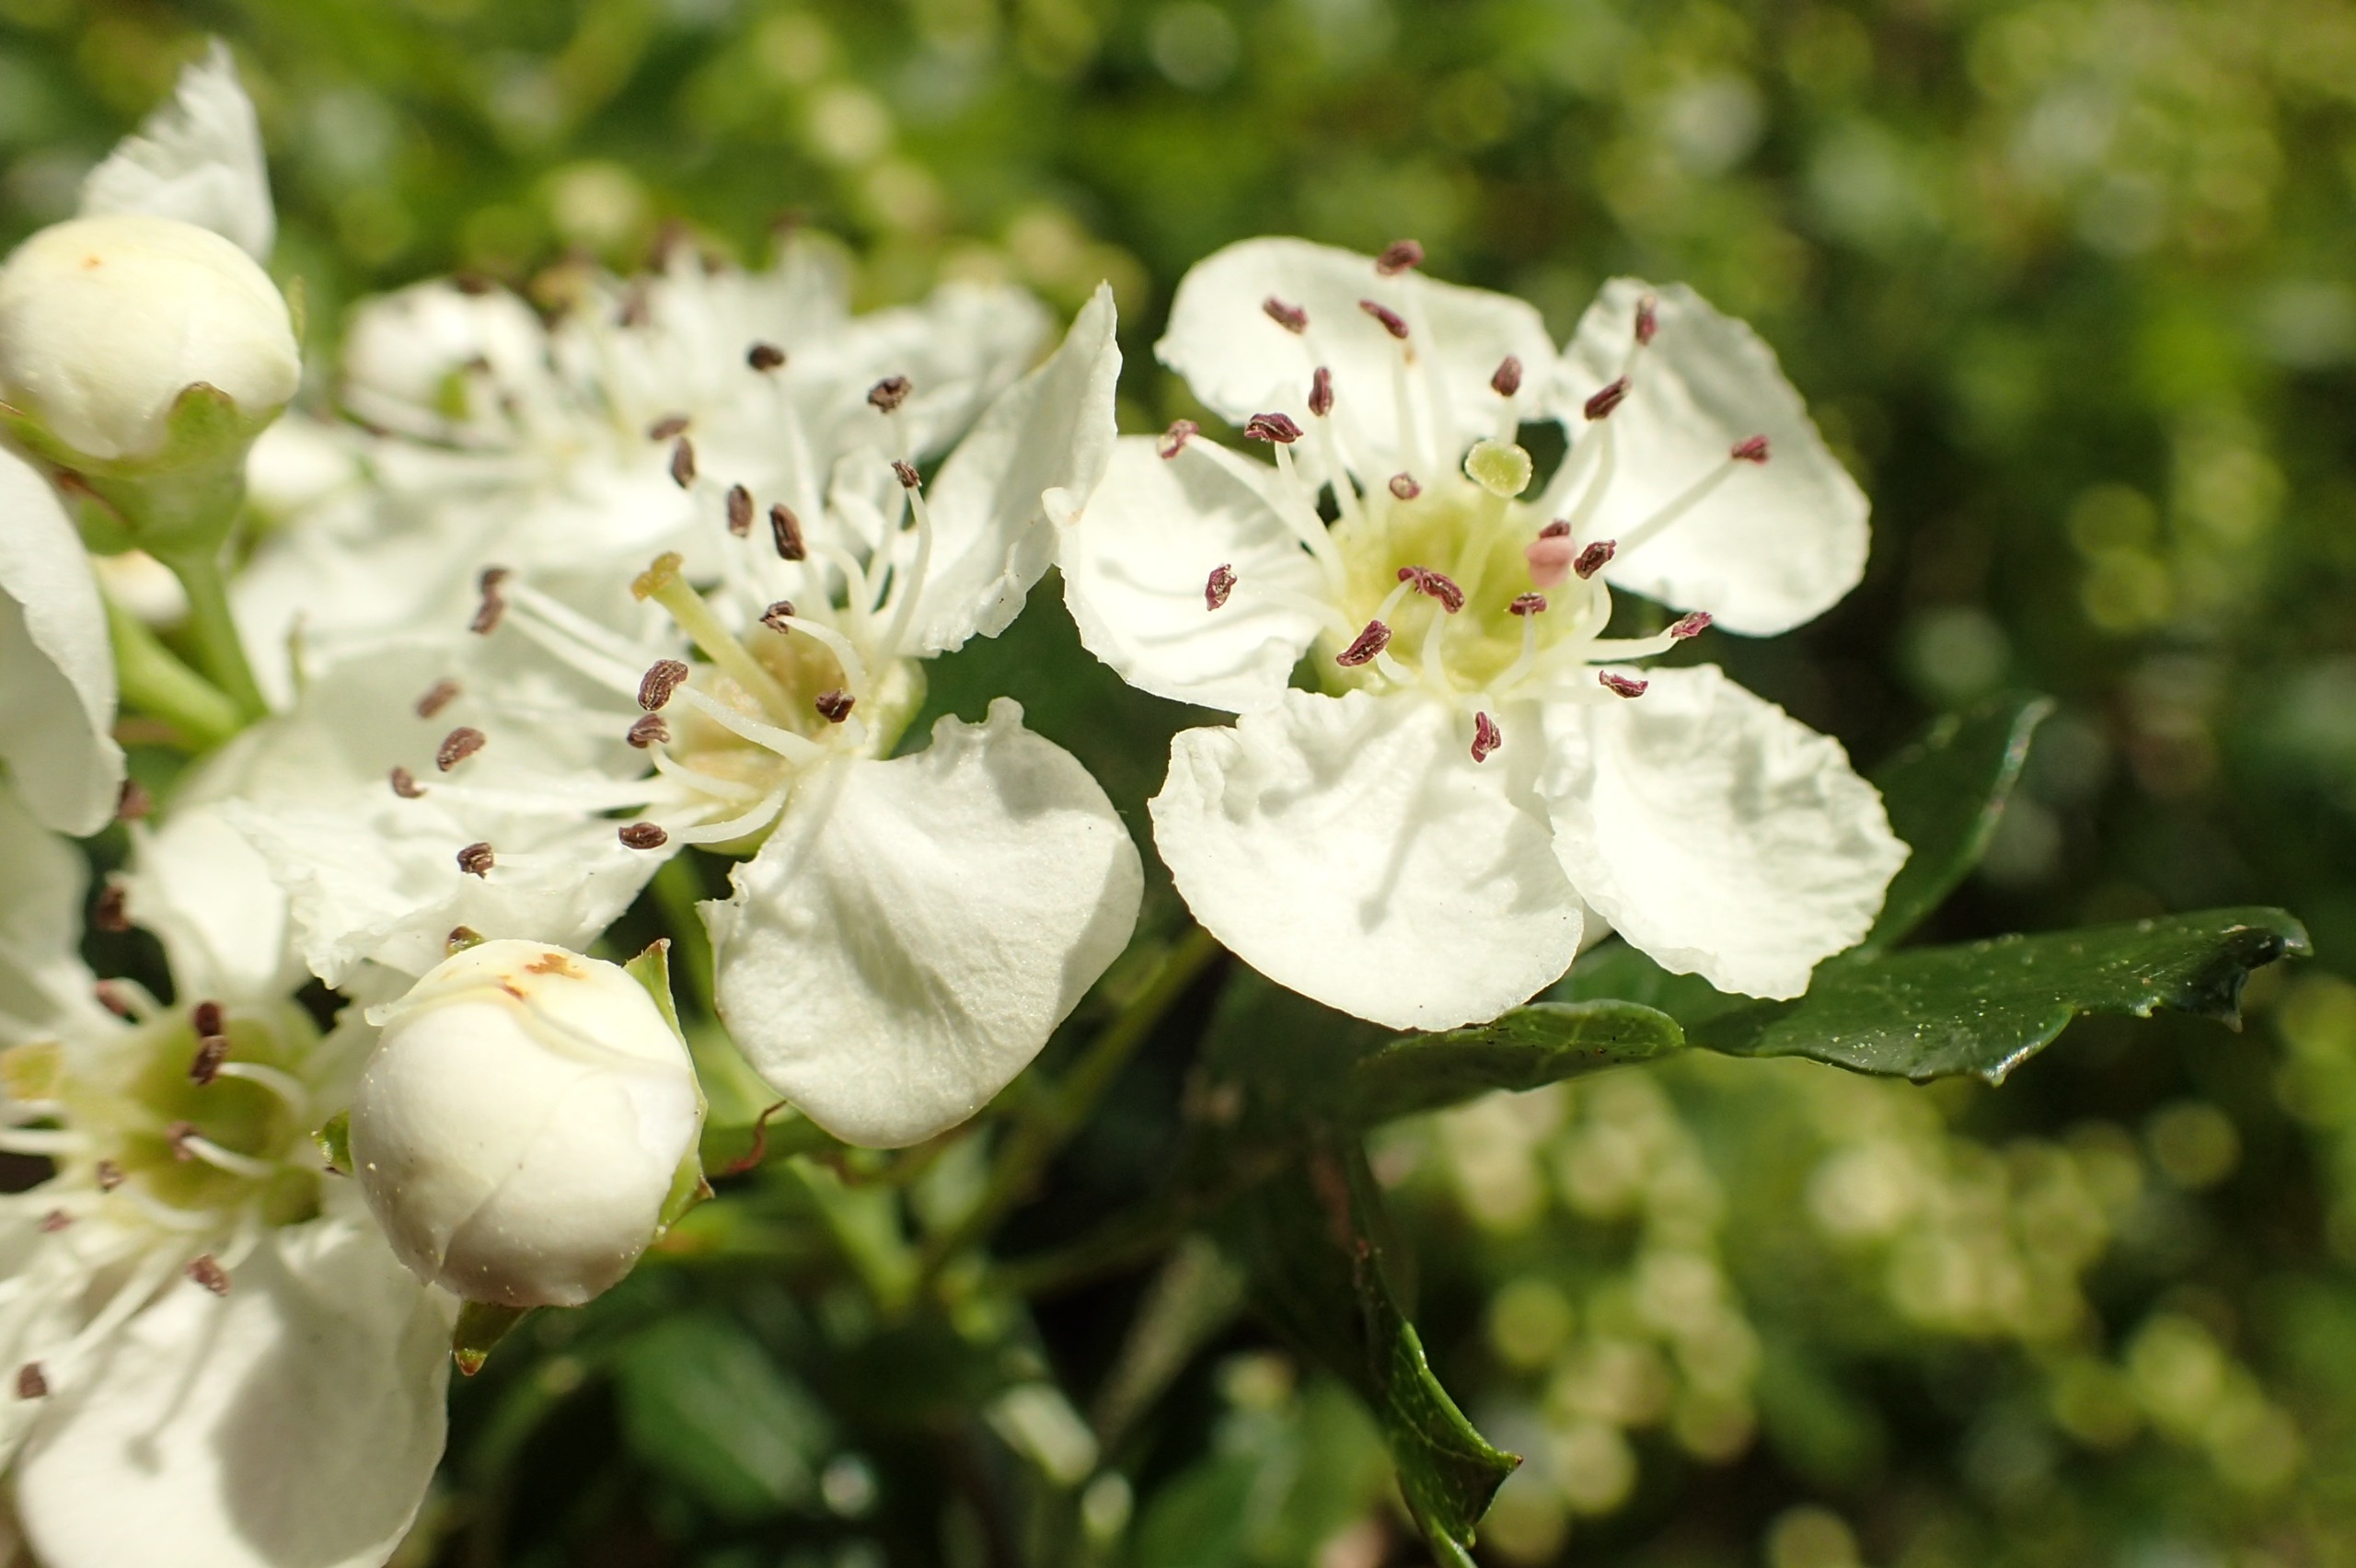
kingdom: Plantae
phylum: Tracheophyta
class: Magnoliopsida
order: Rosales
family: Rosaceae
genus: Crataegus
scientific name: Crataegus monogyna
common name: Engriflet hvidtjørn
